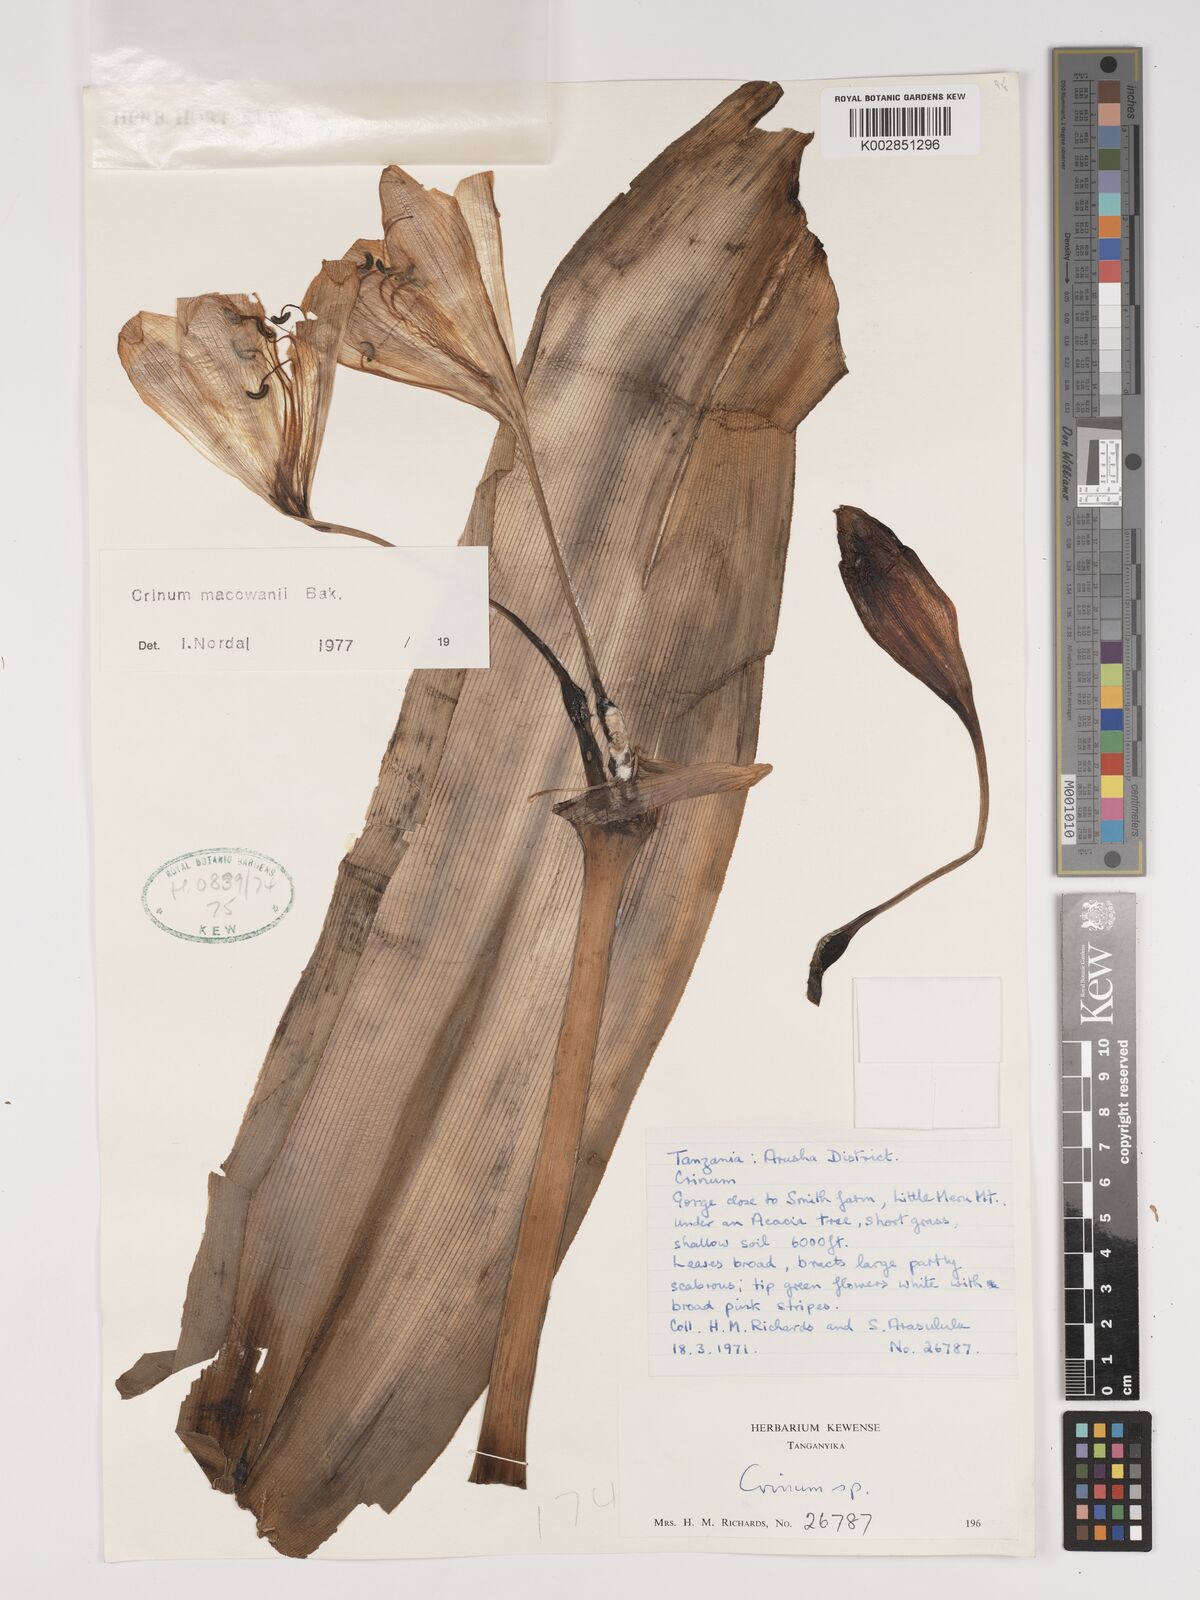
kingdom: Plantae
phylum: Tracheophyta
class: Liliopsida
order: Asparagales
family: Amaryllidaceae
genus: Crinum
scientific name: Crinum macowanii
